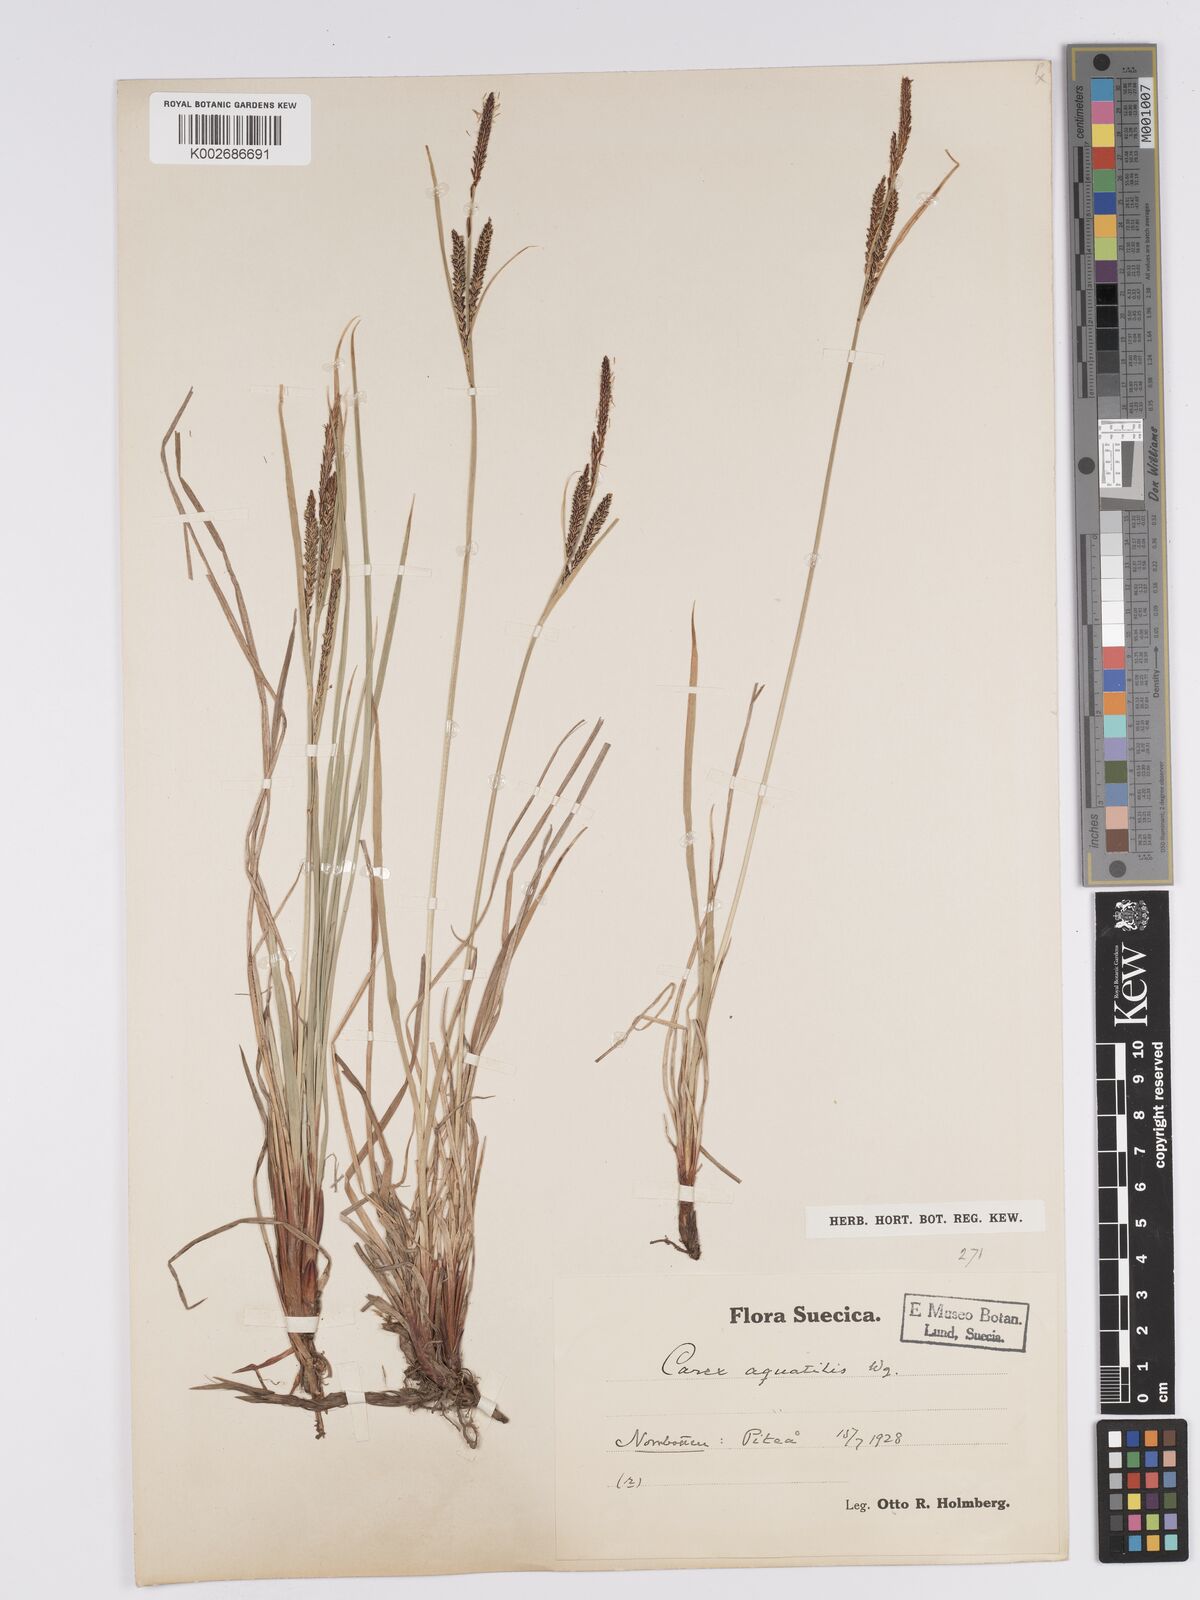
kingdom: Plantae
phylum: Tracheophyta
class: Liliopsida
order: Poales
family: Cyperaceae
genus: Carex
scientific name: Carex aquatilis
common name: Water sedge
